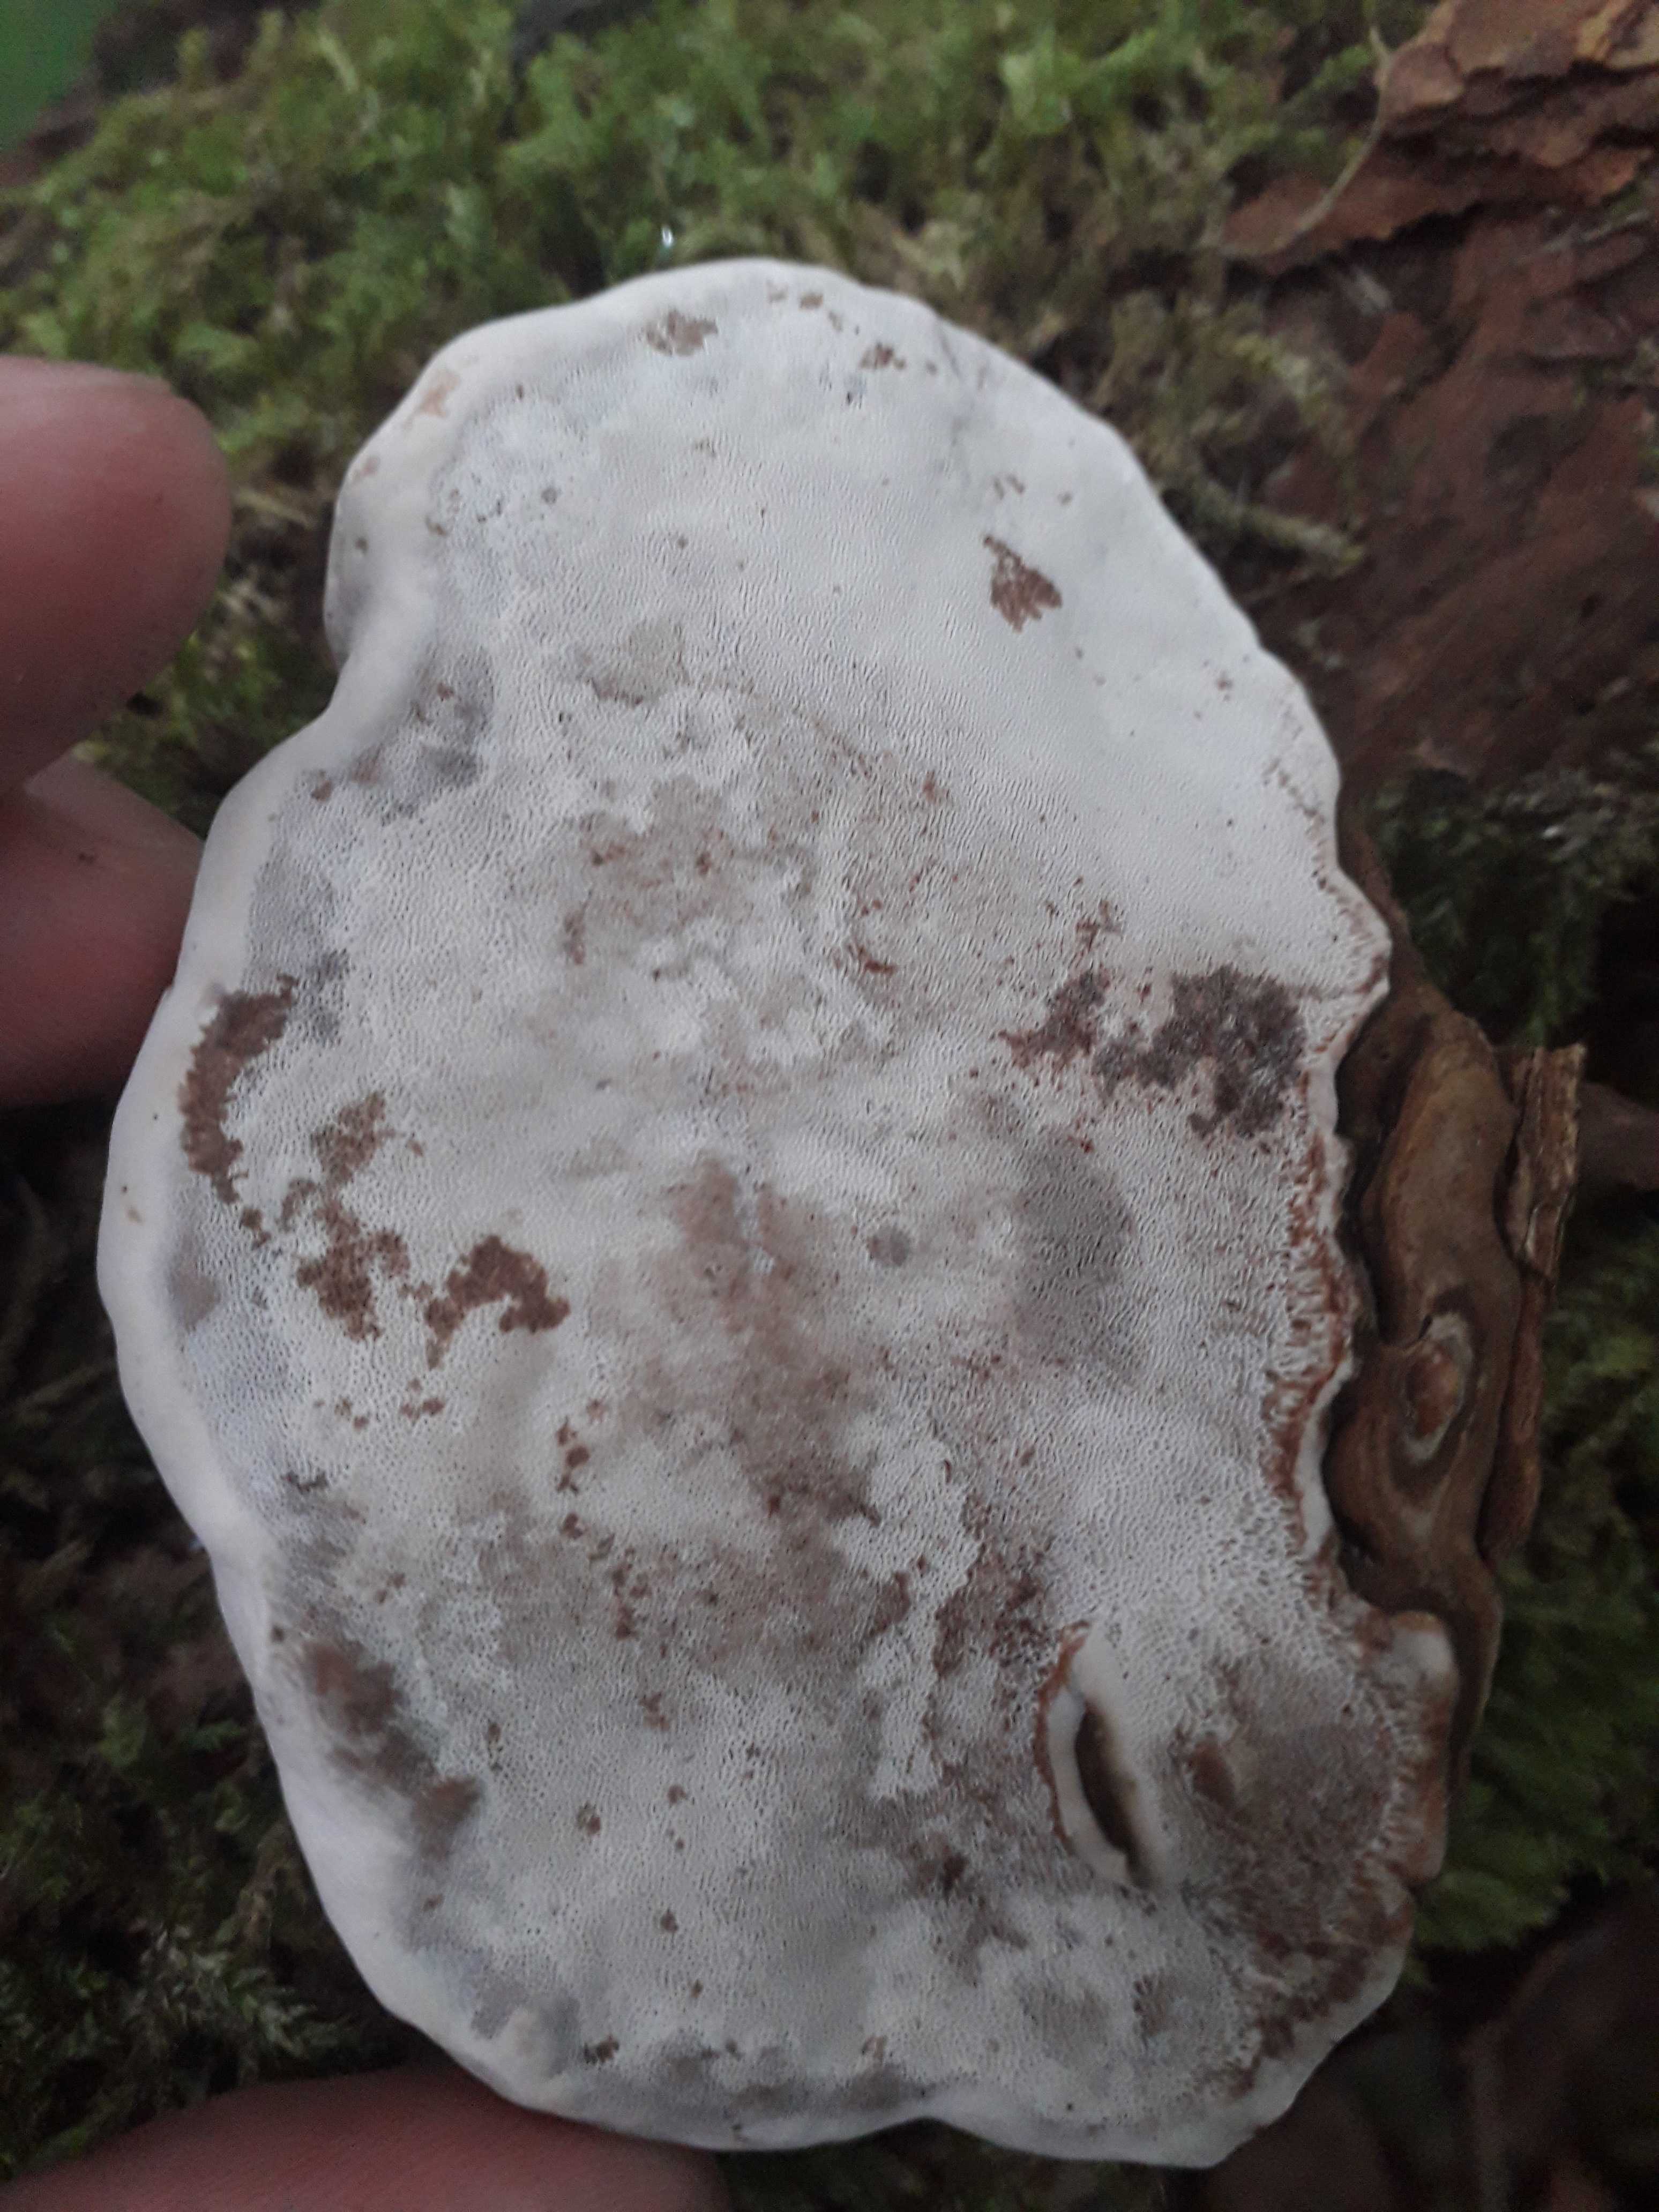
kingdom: Fungi
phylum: Basidiomycota
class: Agaricomycetes
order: Polyporales
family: Polyporaceae
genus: Ganoderma
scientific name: Ganoderma applanatum
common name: flad lakporesvamp
